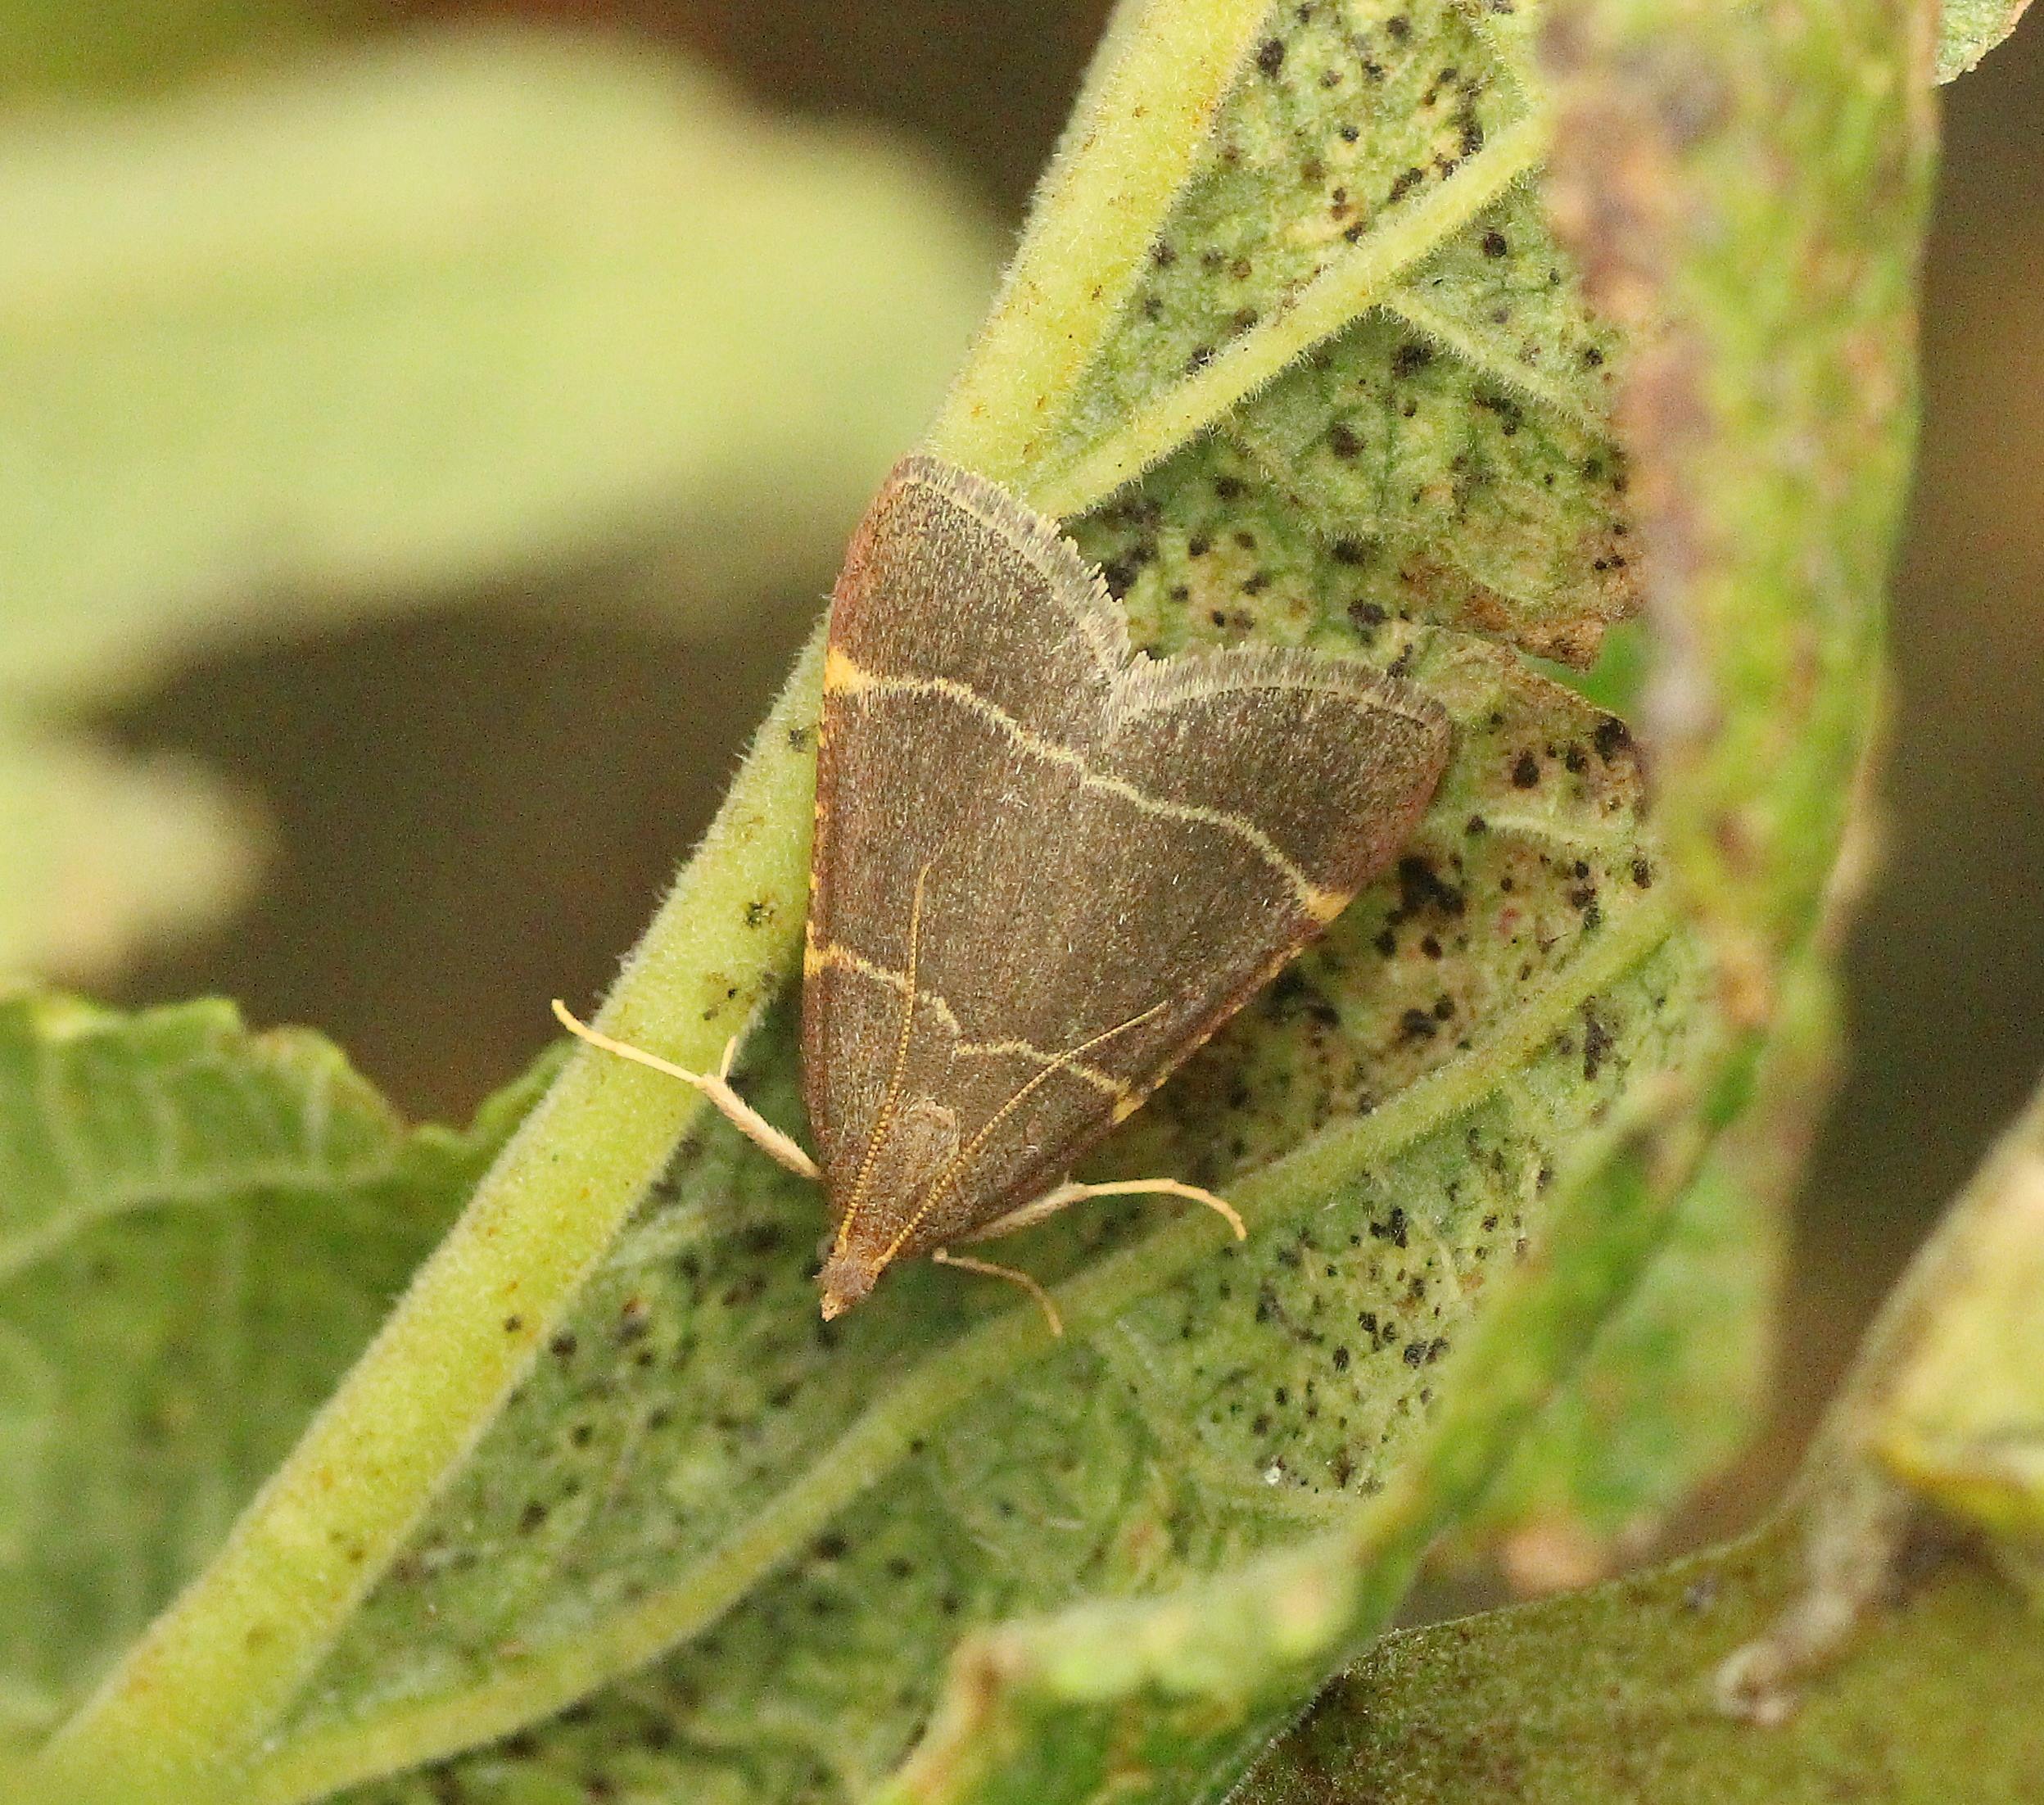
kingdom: Animalia
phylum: Arthropoda
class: Insecta
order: Lepidoptera
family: Pyralidae
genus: Hypsopygia
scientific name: Hypsopygia glaucinalis
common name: Blågråt herkuleshalvmøl
